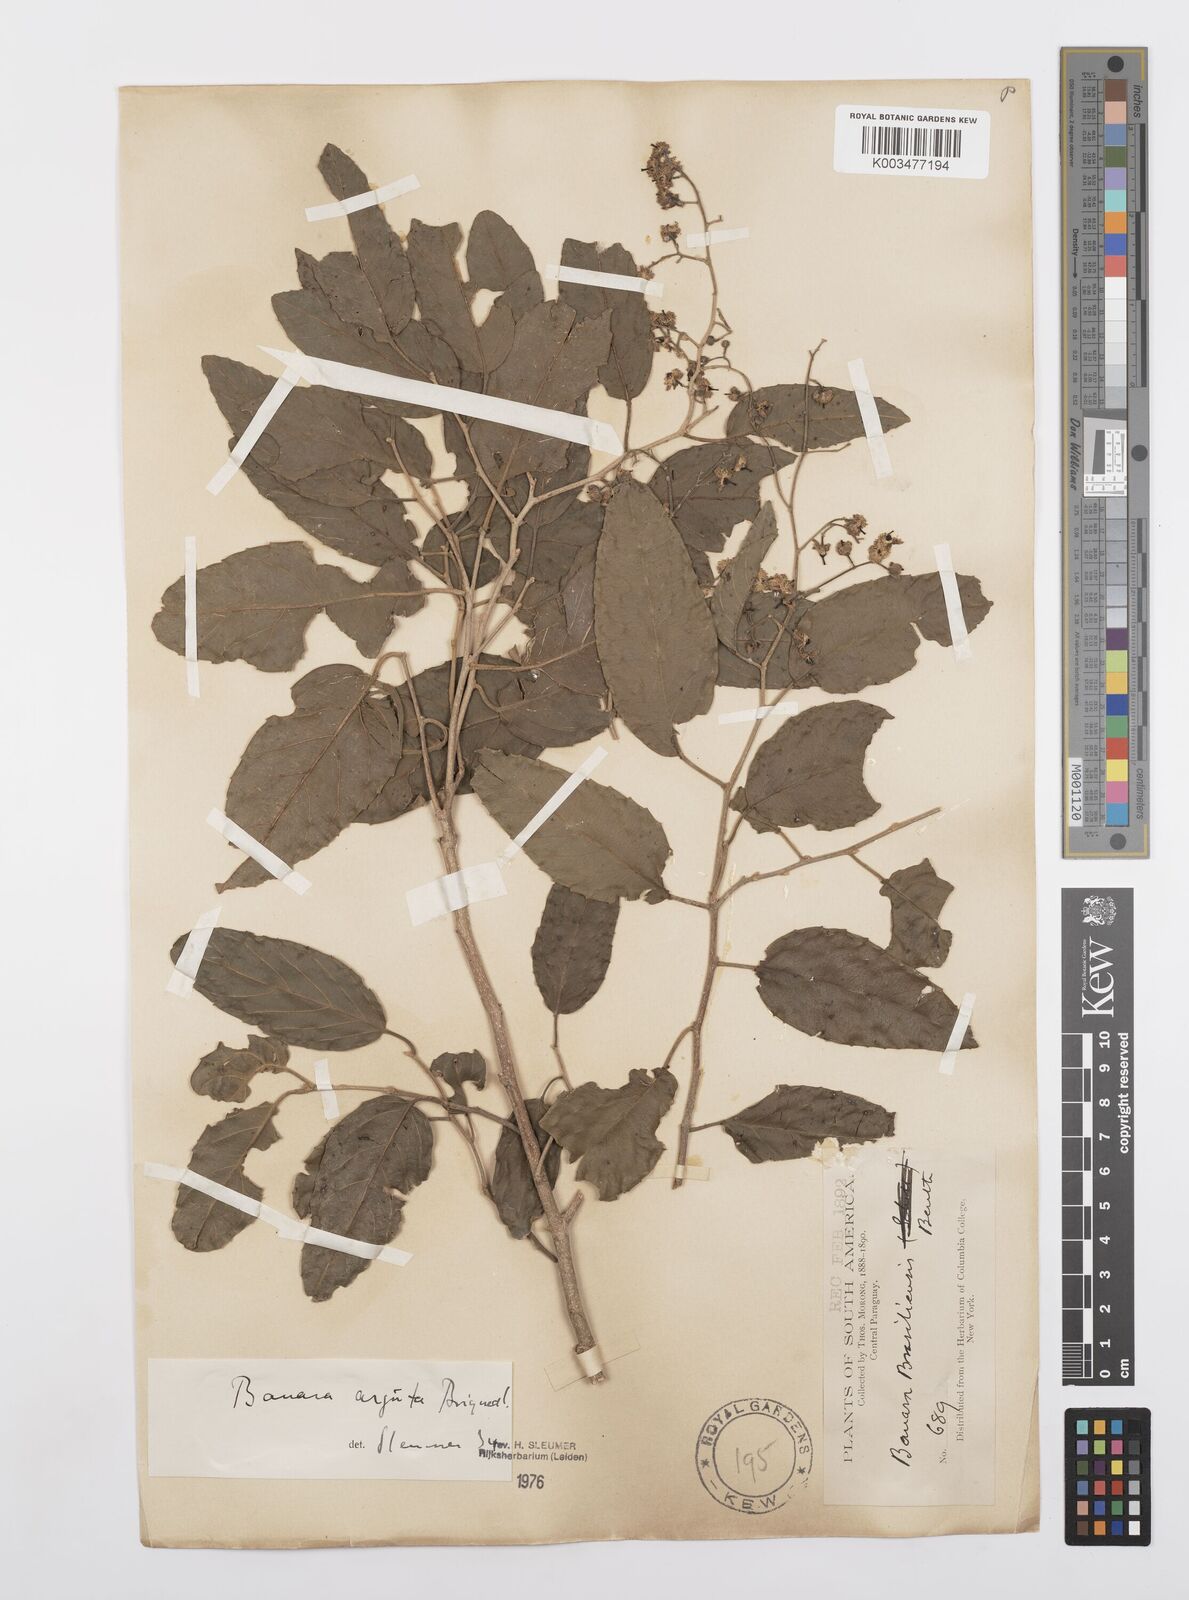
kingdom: Plantae
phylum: Tracheophyta
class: Magnoliopsida
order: Malpighiales
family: Salicaceae
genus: Banara
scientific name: Banara arguta
